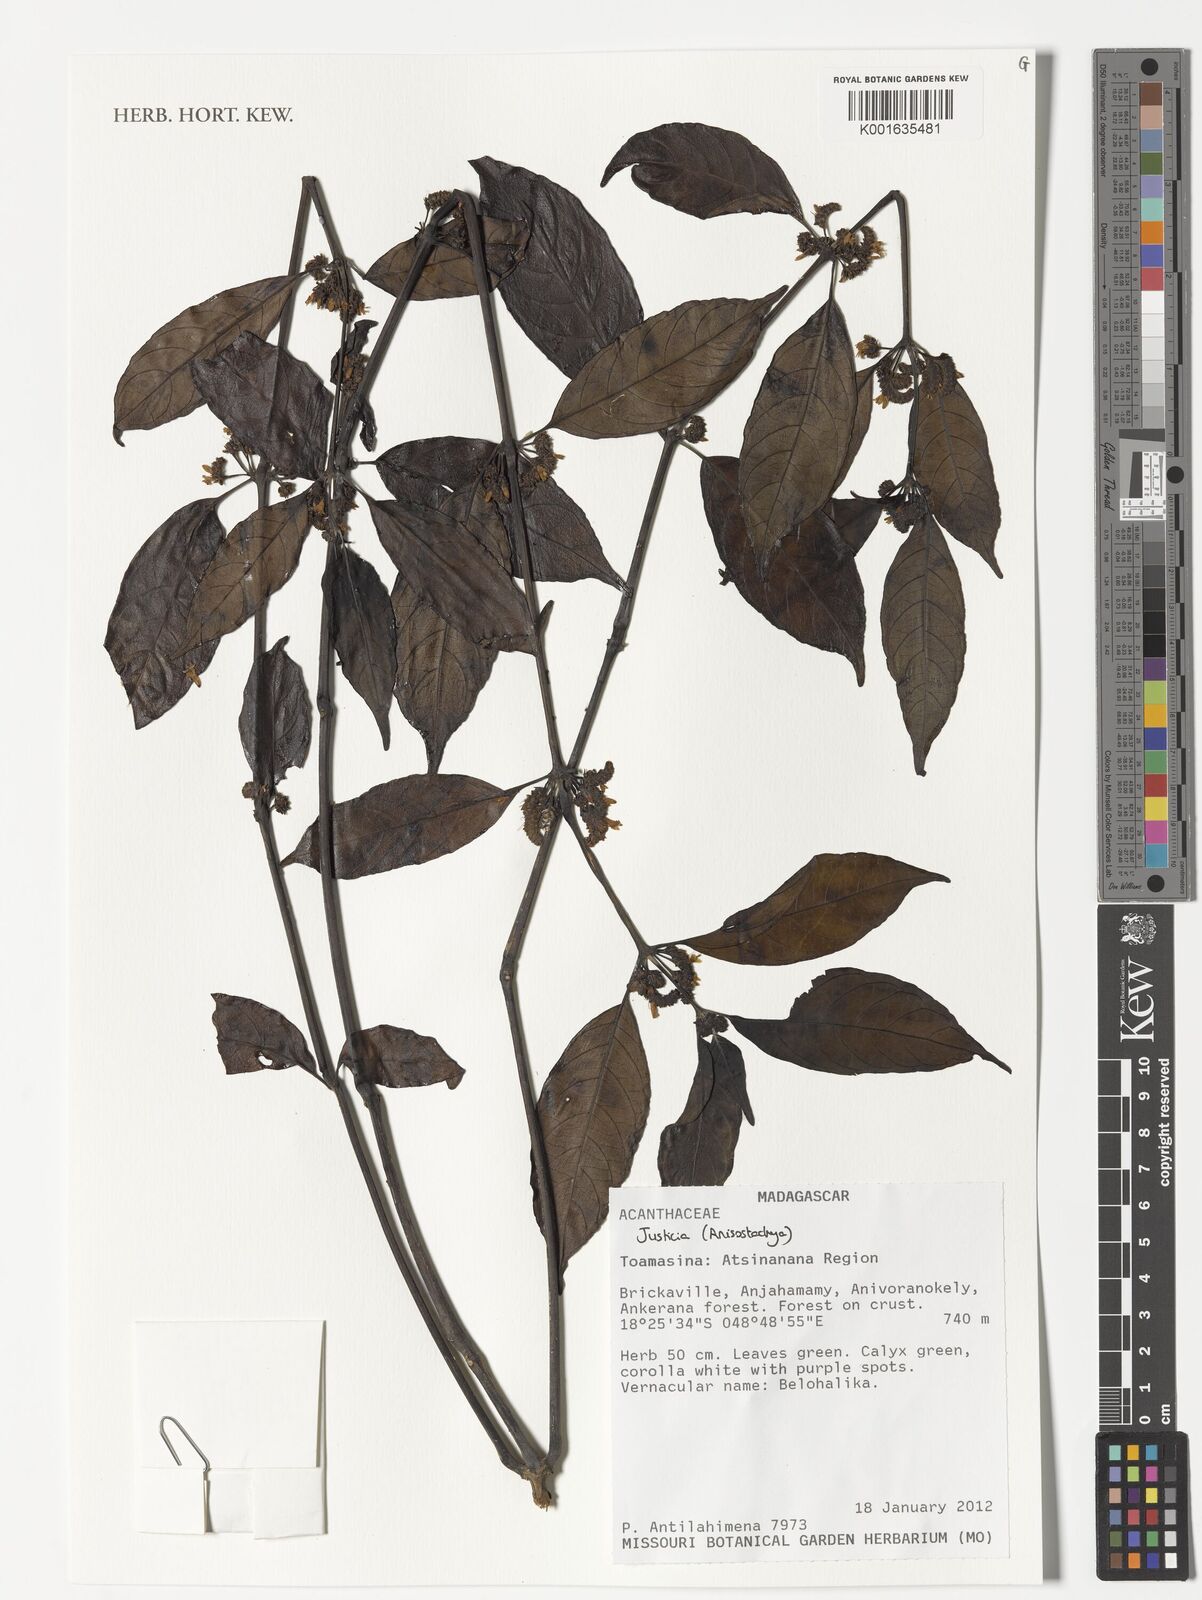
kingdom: Plantae
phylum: Tracheophyta
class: Magnoliopsida
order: Lamiales
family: Acanthaceae
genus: Justicia
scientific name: Justicia
